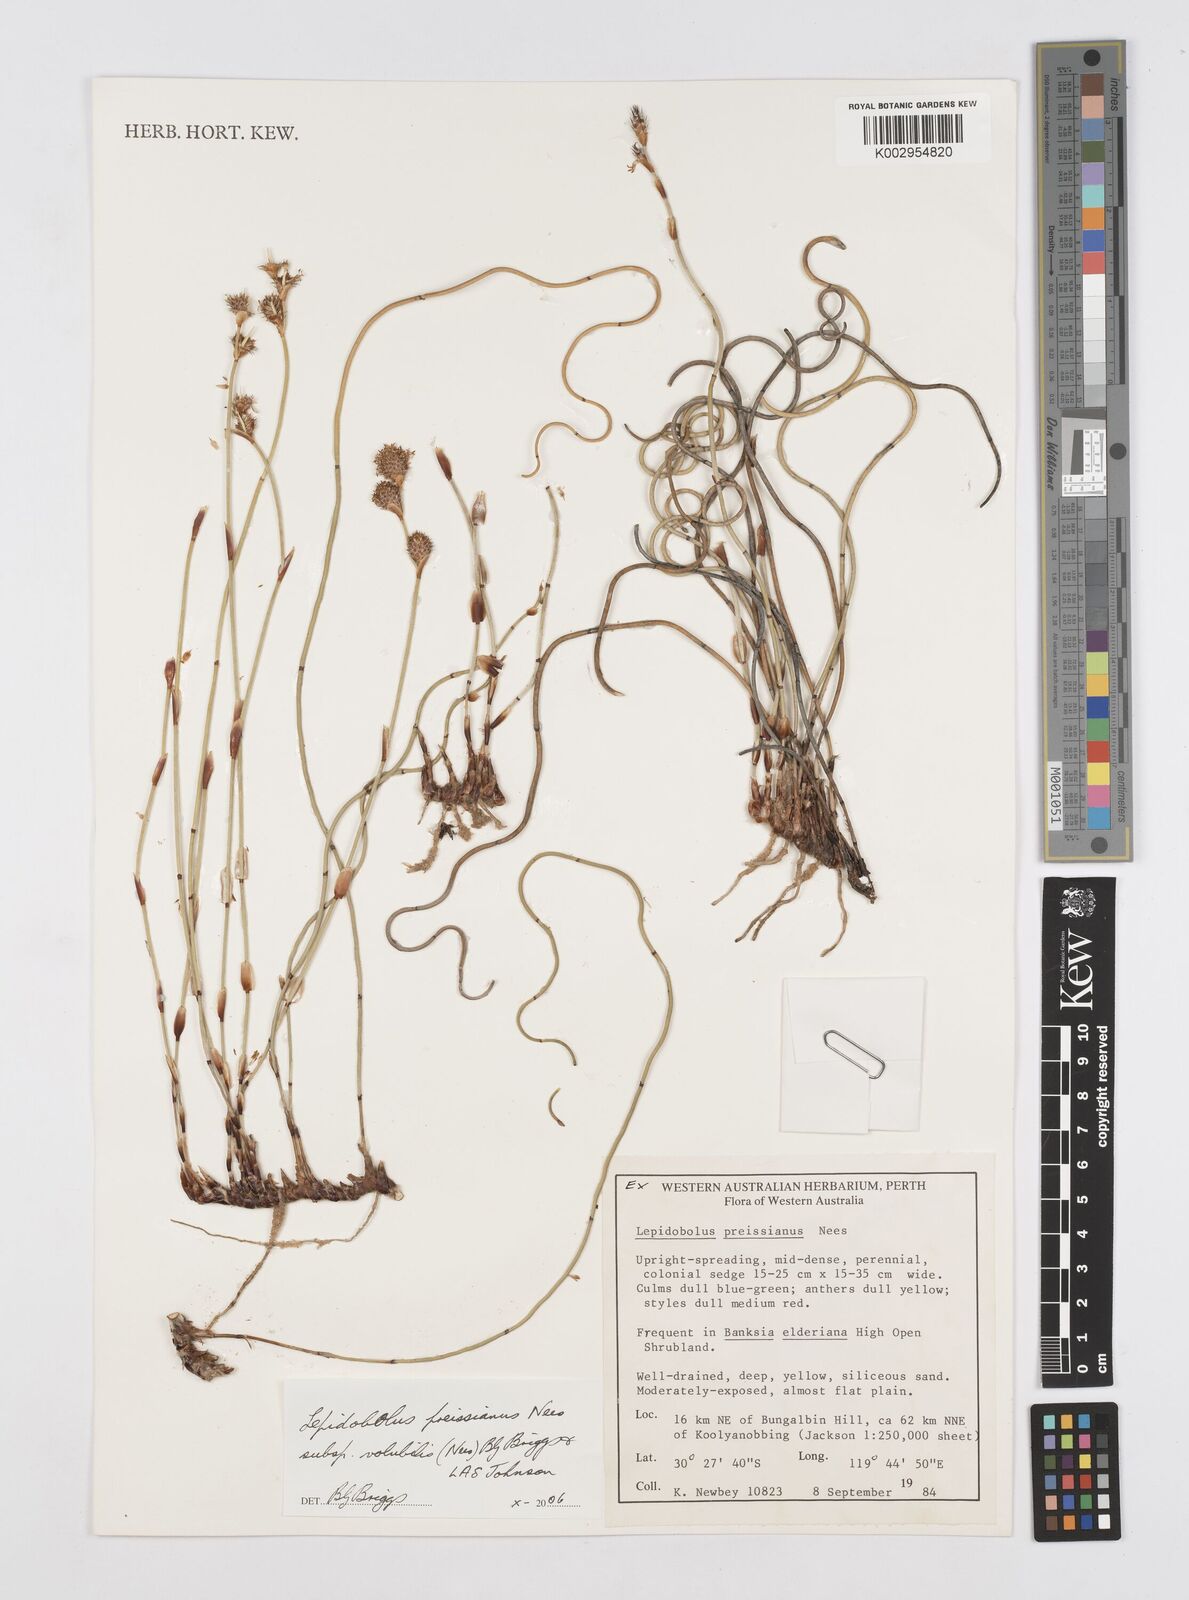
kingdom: Plantae
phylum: Tracheophyta
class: Liliopsida
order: Poales
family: Restionaceae
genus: Lepidobolus
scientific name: Lepidobolus preissianus
